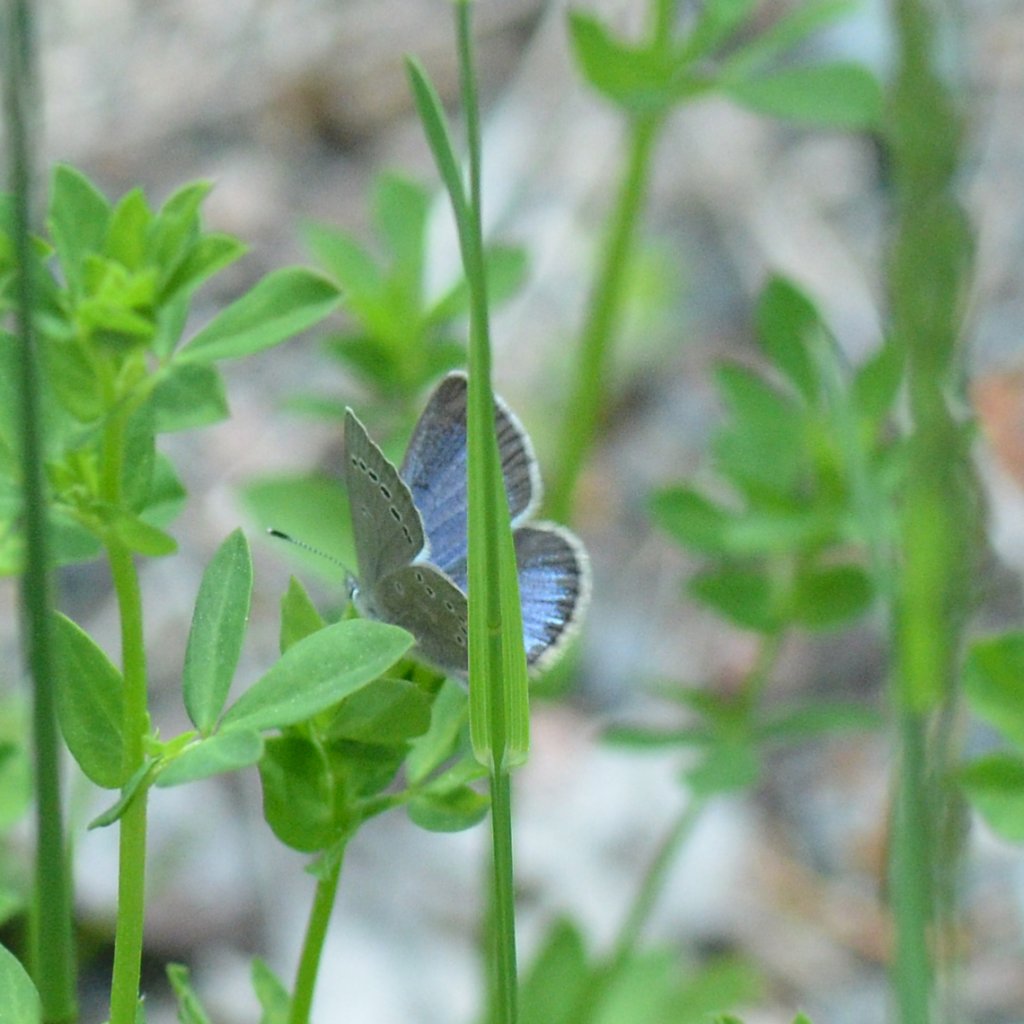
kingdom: Animalia
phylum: Arthropoda
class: Insecta
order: Lepidoptera
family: Lycaenidae
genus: Glaucopsyche
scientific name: Glaucopsyche lygdamus
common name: Silvery Blue
